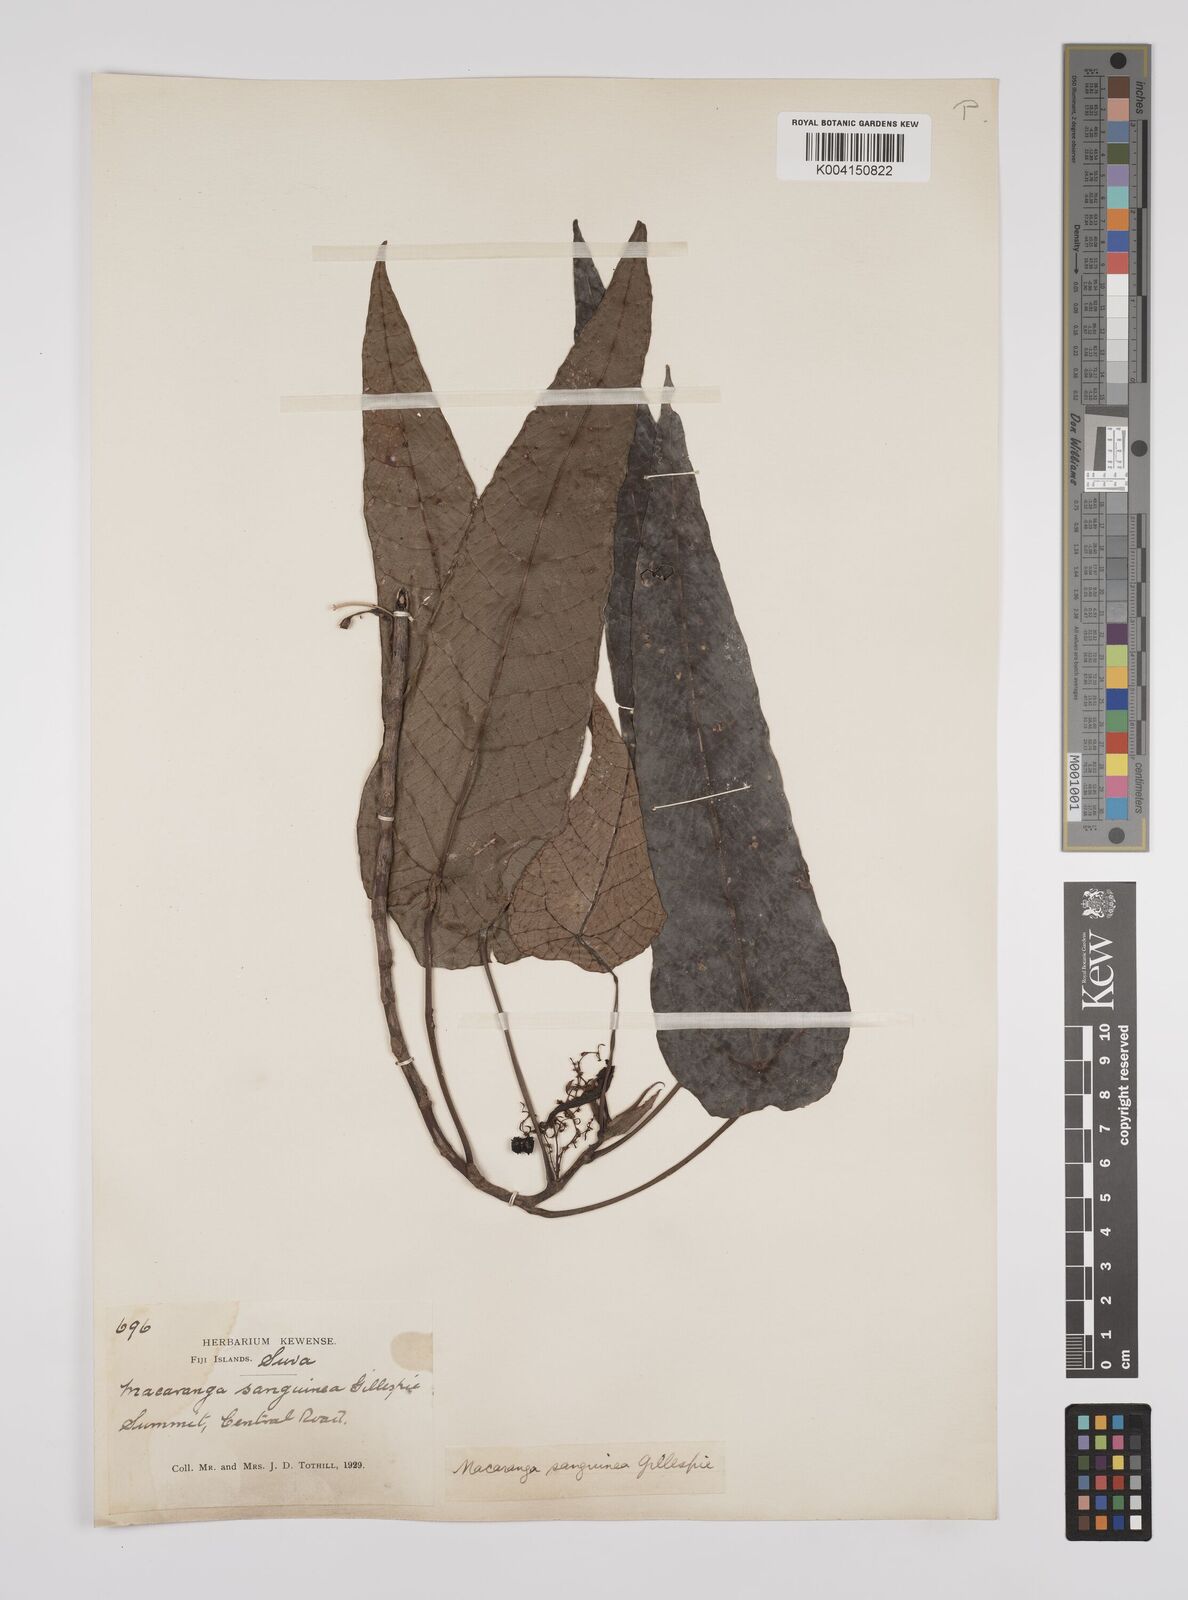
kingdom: Plantae
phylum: Tracheophyta
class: Magnoliopsida
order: Malpighiales
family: Euphorbiaceae
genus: Macaranga
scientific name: Macaranga vitiensis
